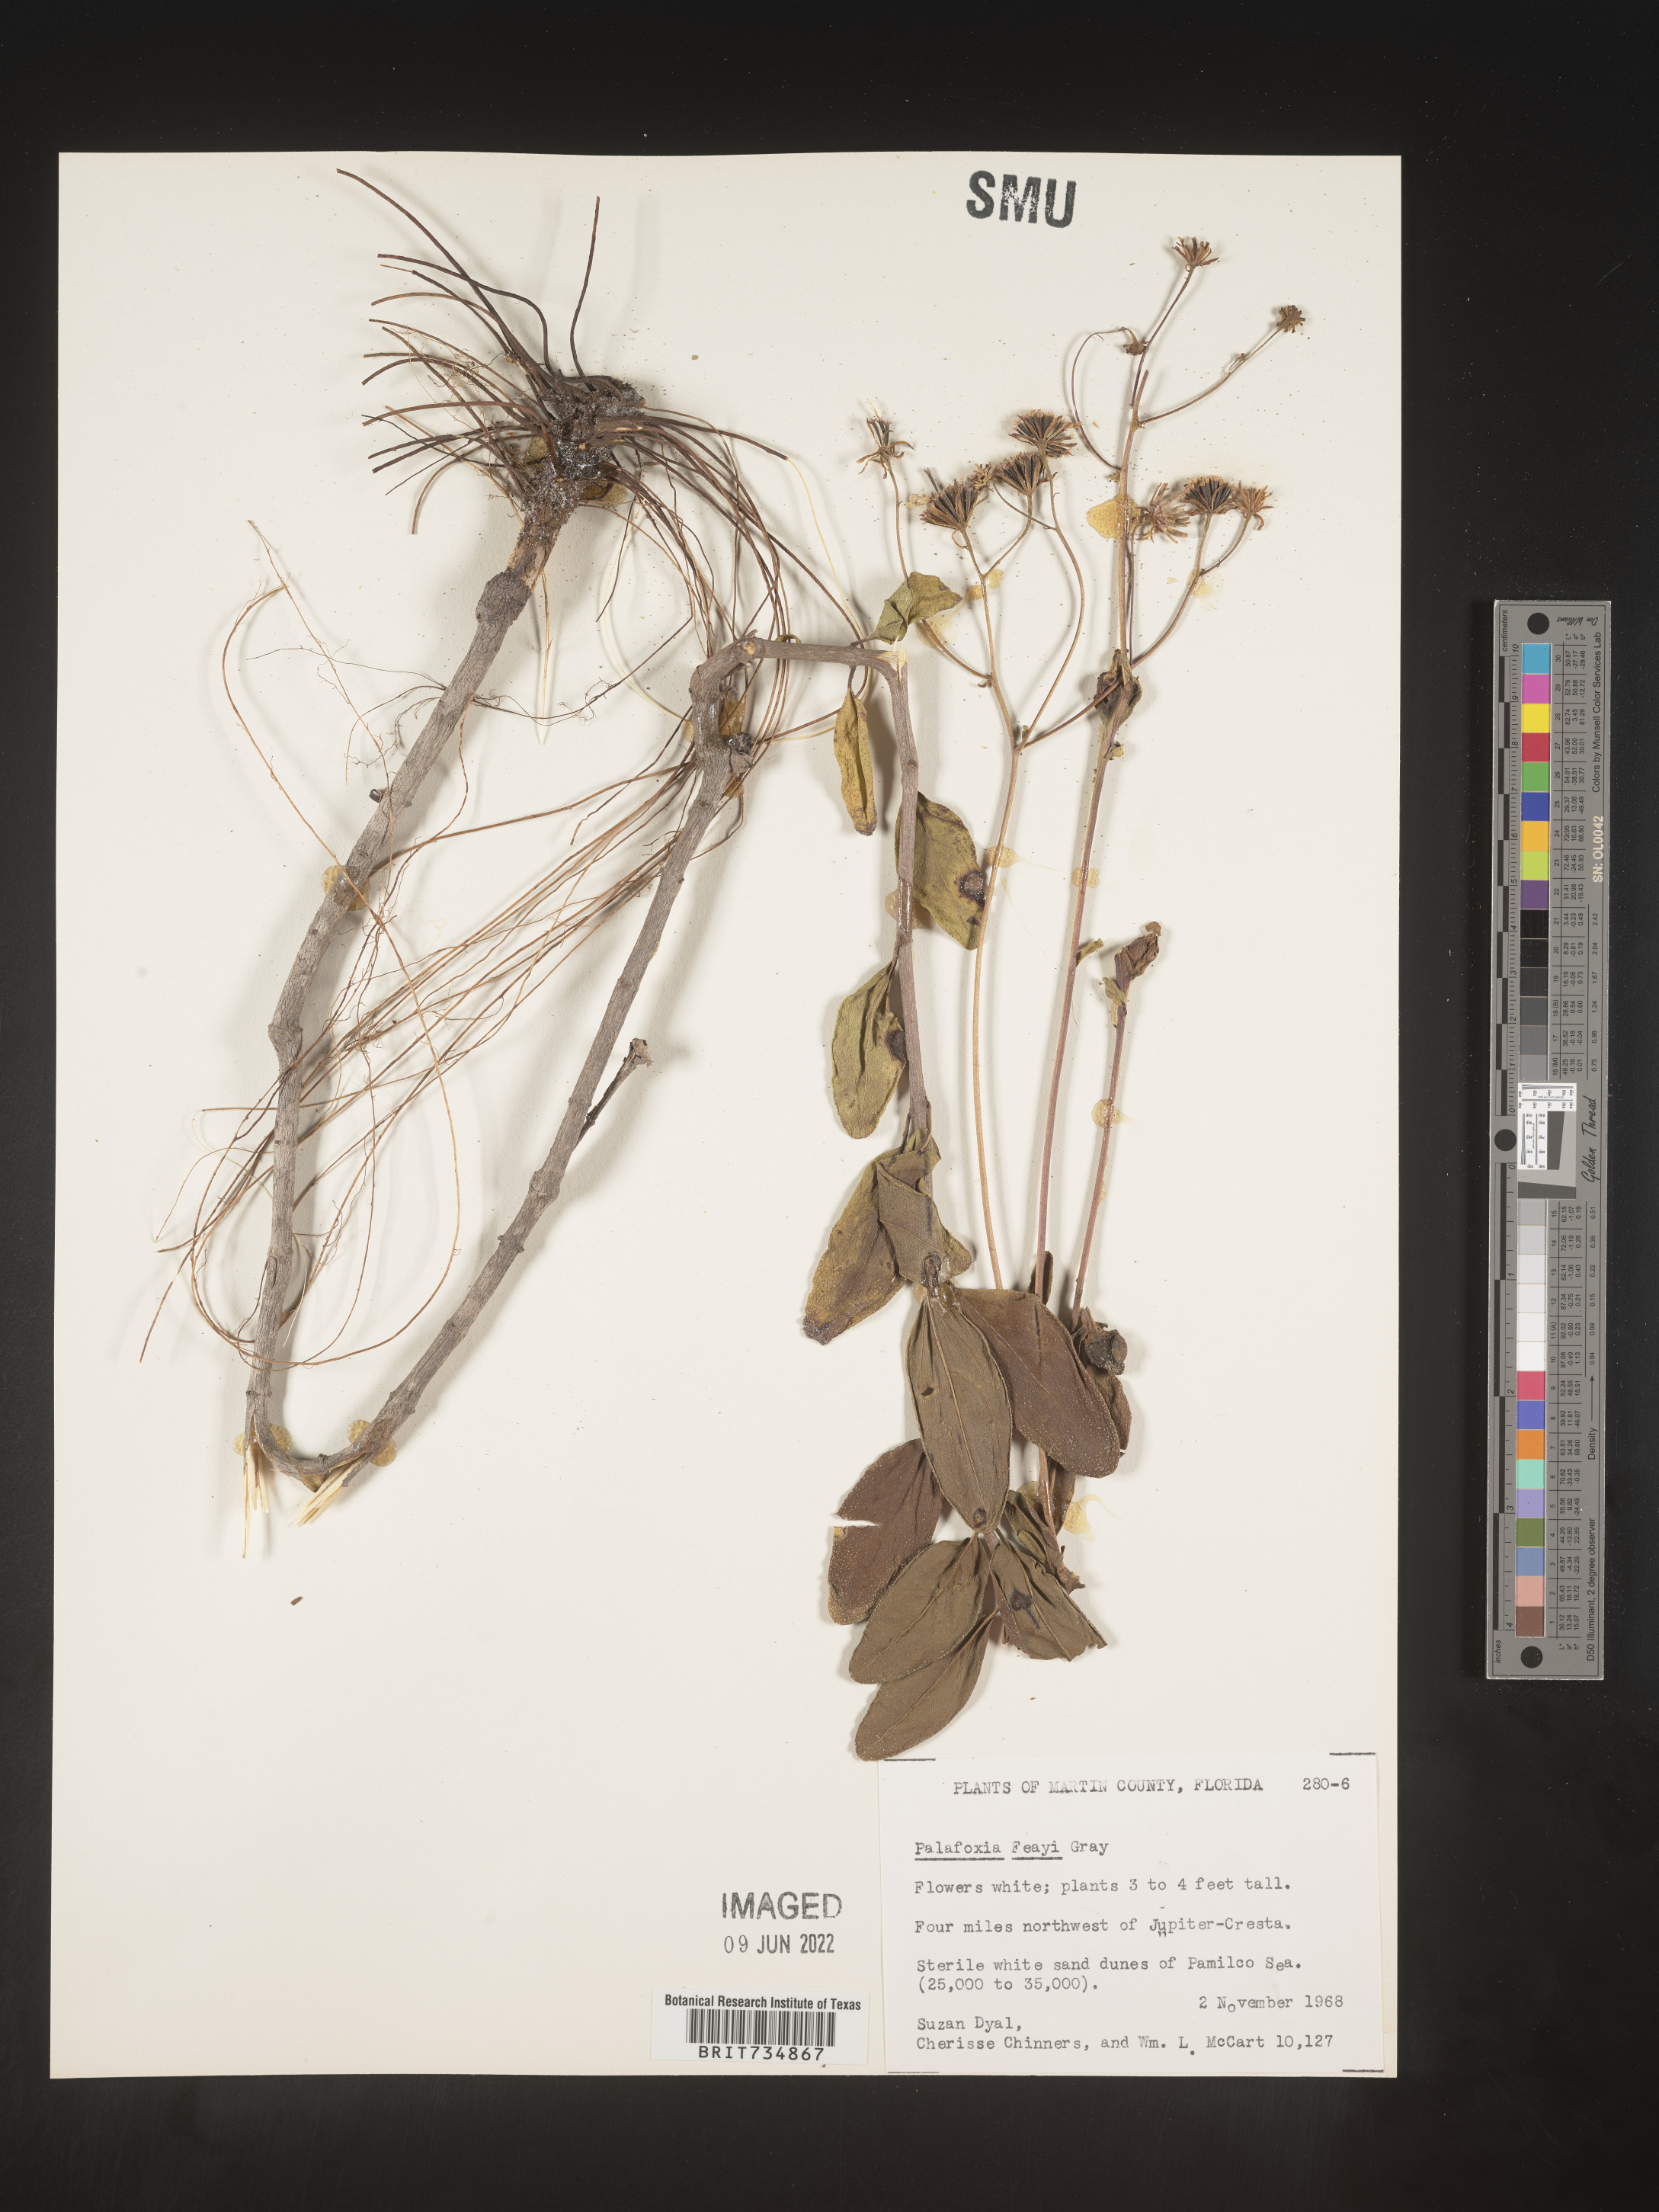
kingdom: Plantae
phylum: Tracheophyta
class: Magnoliopsida
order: Asterales
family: Asteraceae
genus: Palafoxia
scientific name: Palafoxia feayi
